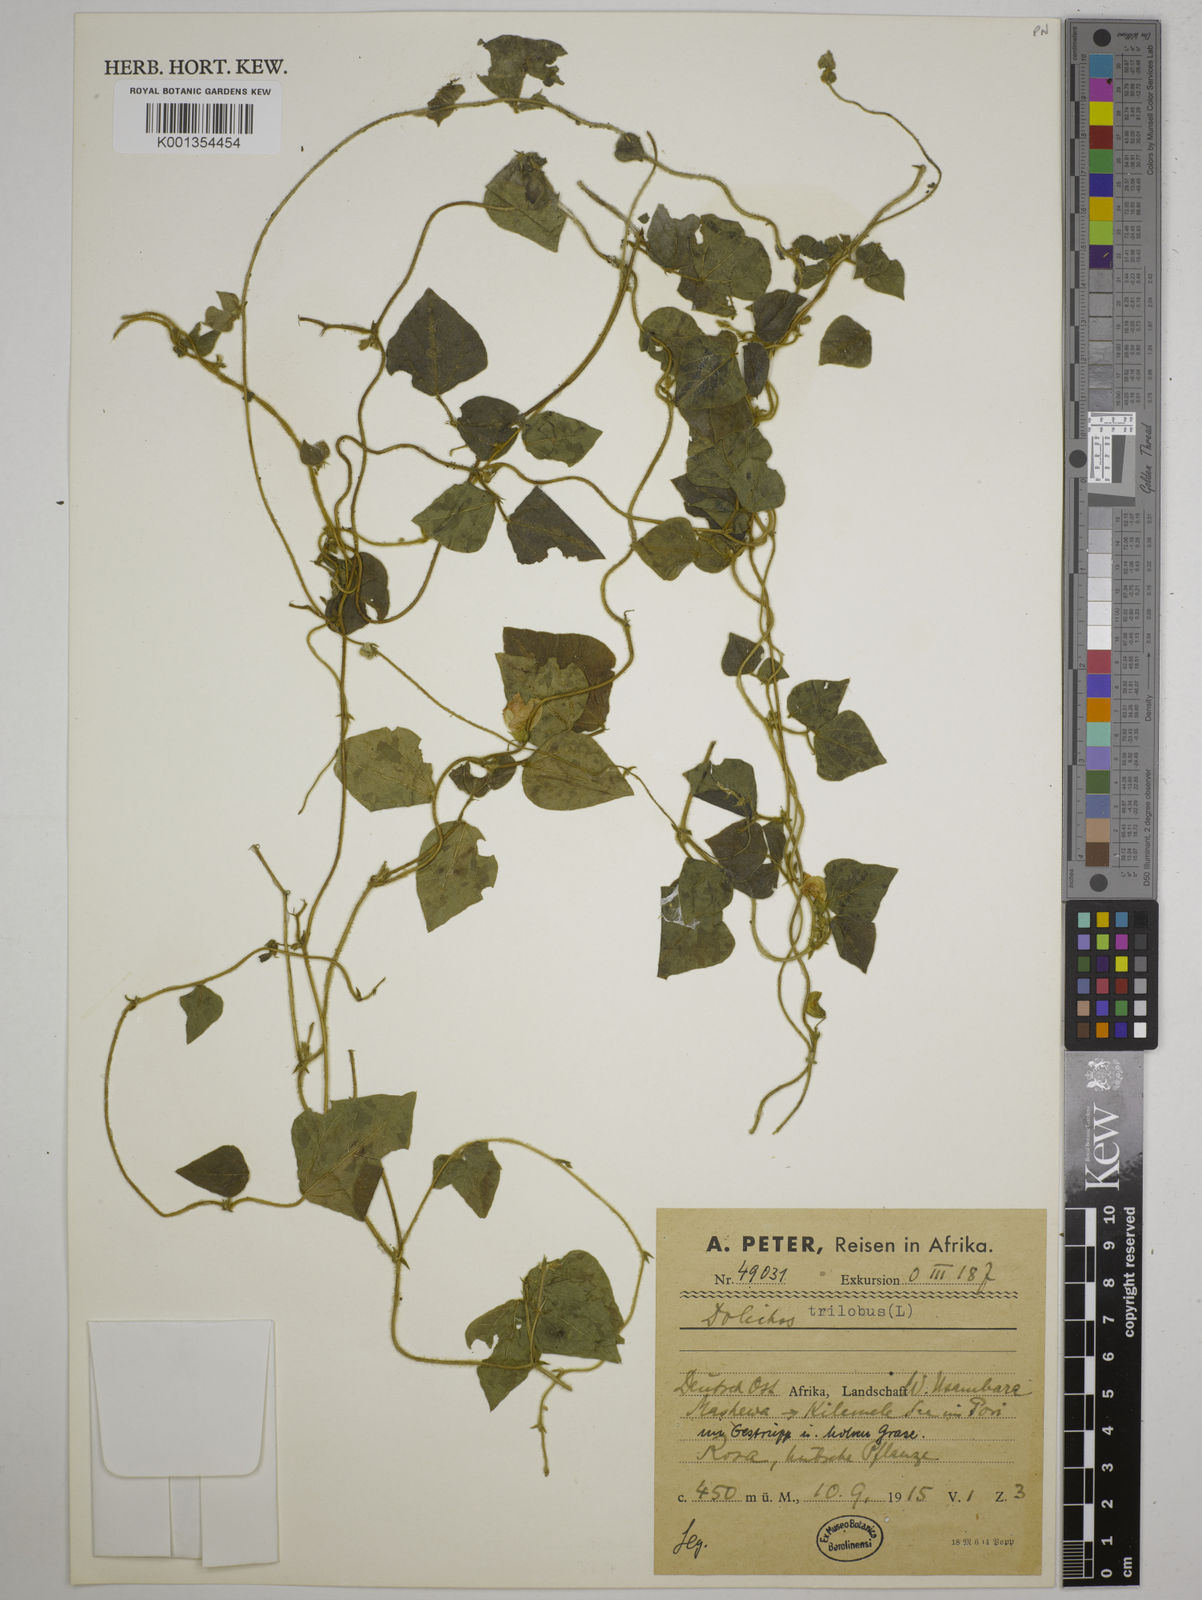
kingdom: Plantae
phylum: Tracheophyta
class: Magnoliopsida
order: Fabales
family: Fabaceae
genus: Dolichos
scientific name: Dolichos
